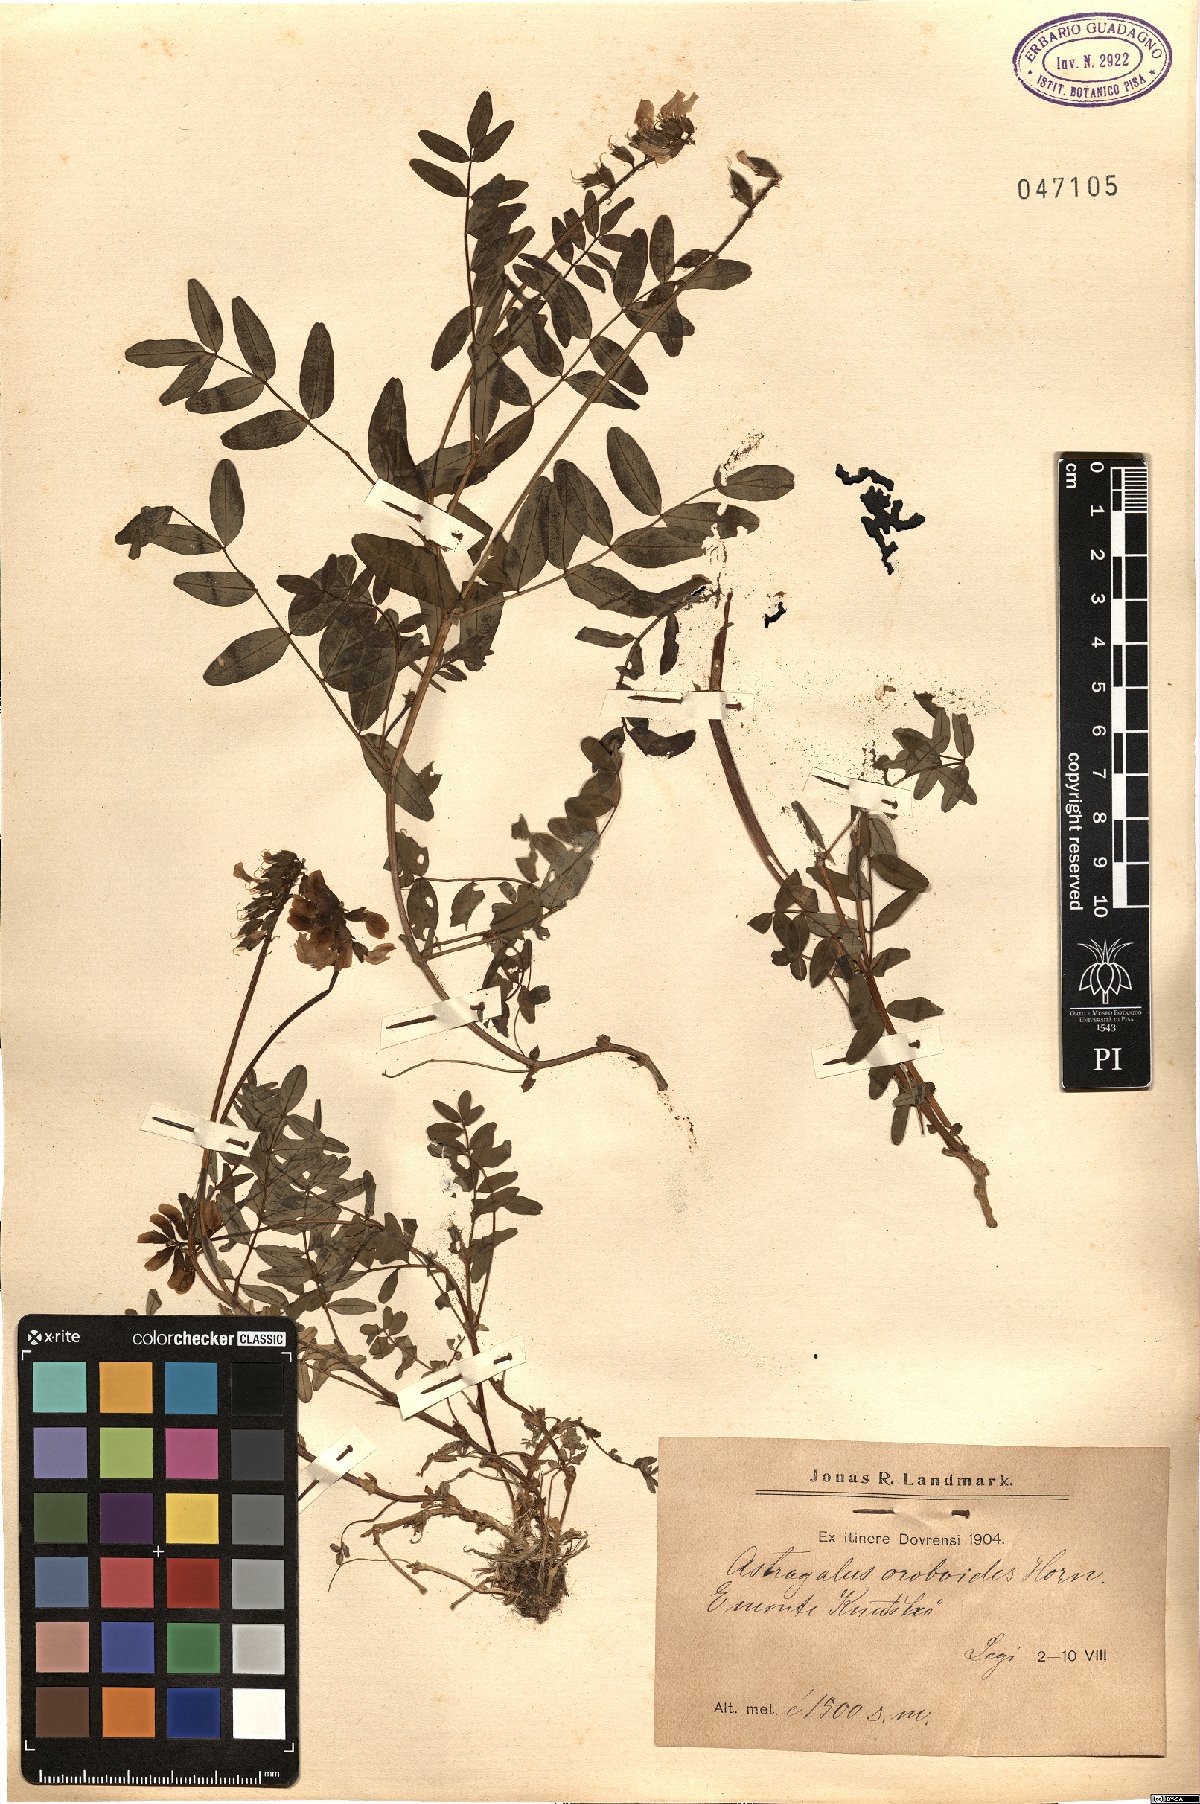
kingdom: Plantae
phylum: Tracheophyta
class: Magnoliopsida
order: Fabales
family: Fabaceae
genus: Astragalus
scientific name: Astragalus norvegicus
